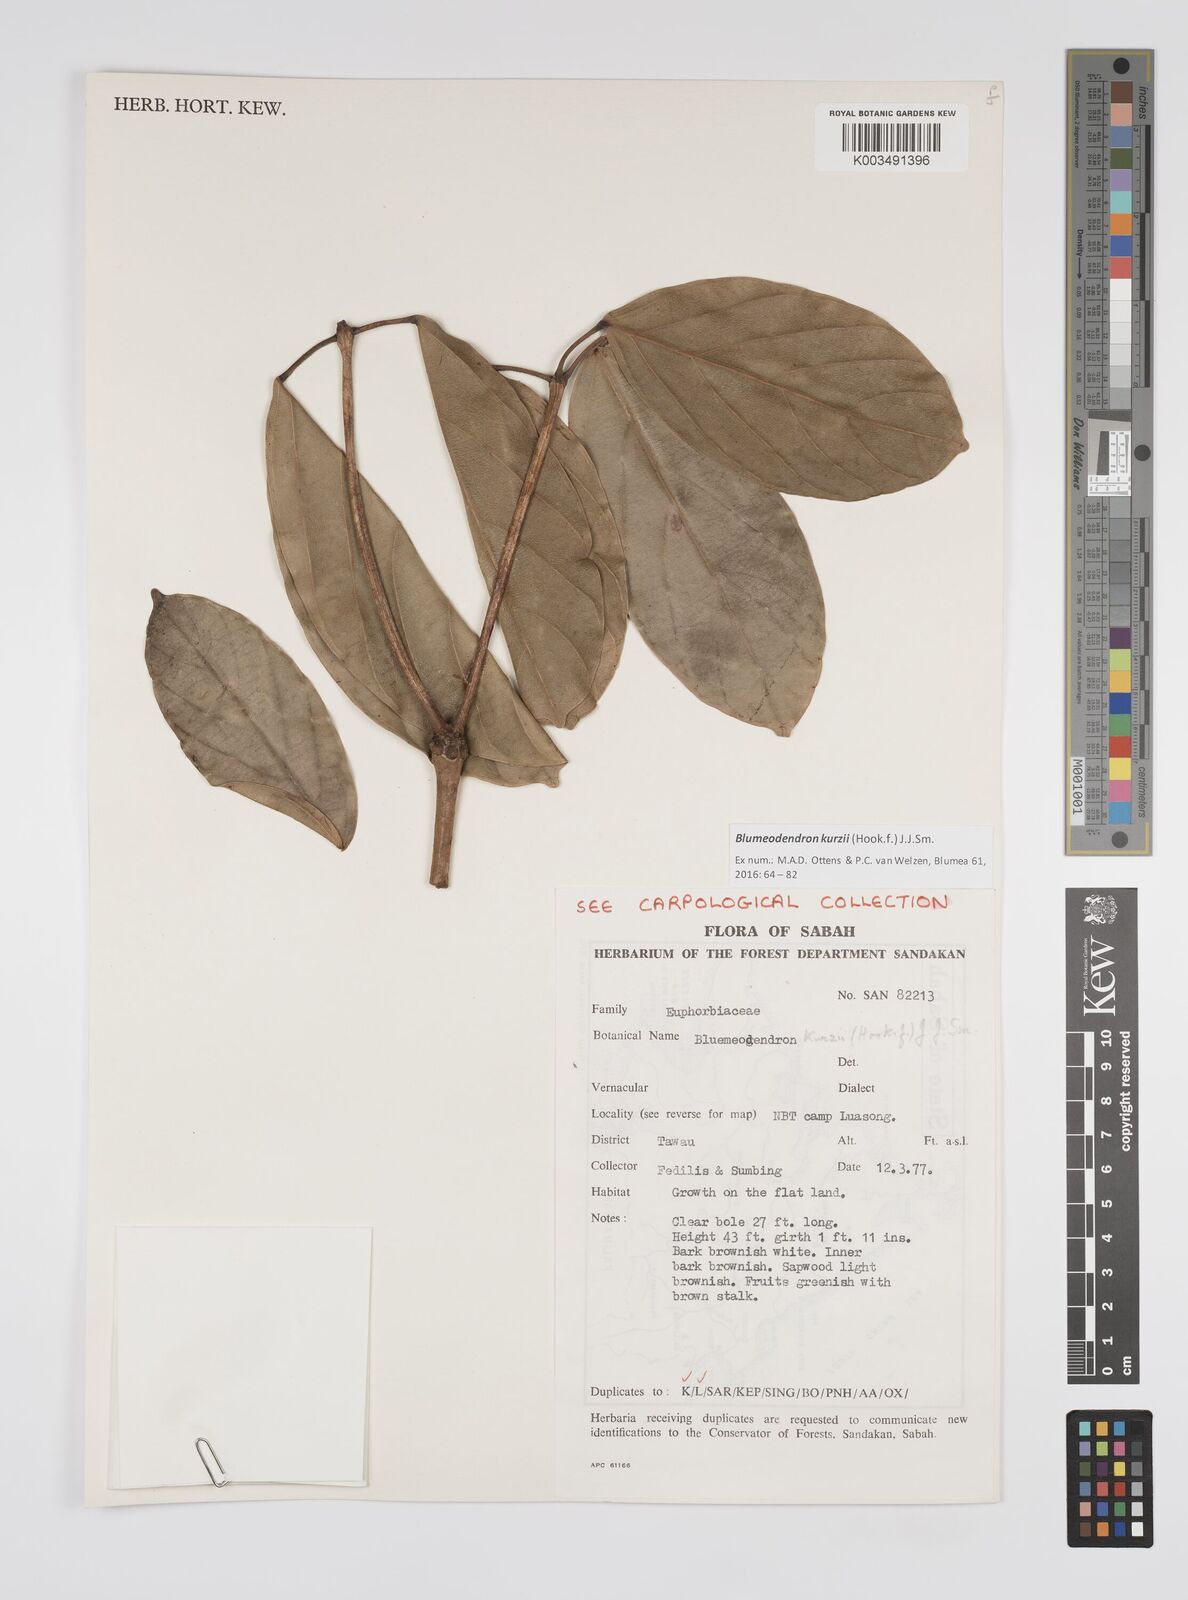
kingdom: Plantae
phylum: Tracheophyta
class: Magnoliopsida
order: Malpighiales
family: Euphorbiaceae
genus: Blumeodendron
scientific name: Blumeodendron kurzii
